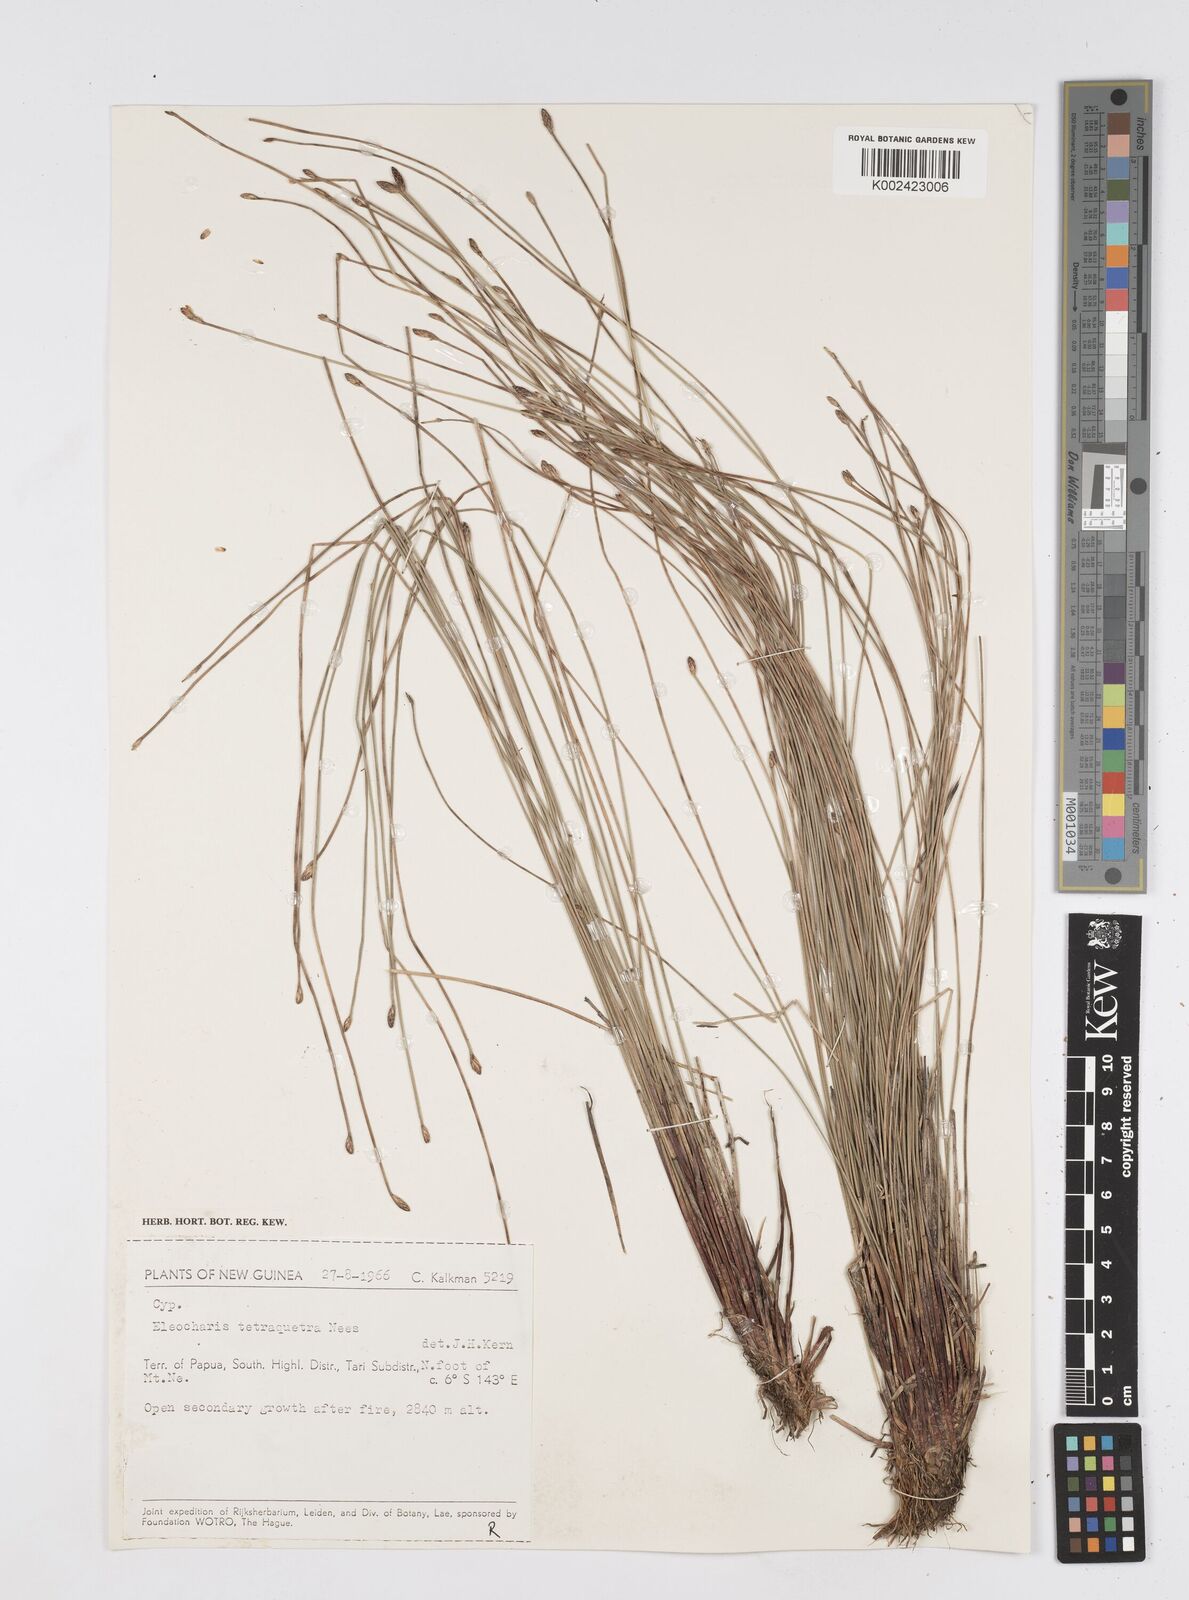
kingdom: Plantae
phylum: Tracheophyta
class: Liliopsida
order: Poales
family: Cyperaceae
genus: Eleocharis
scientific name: Eleocharis tetraquetra
